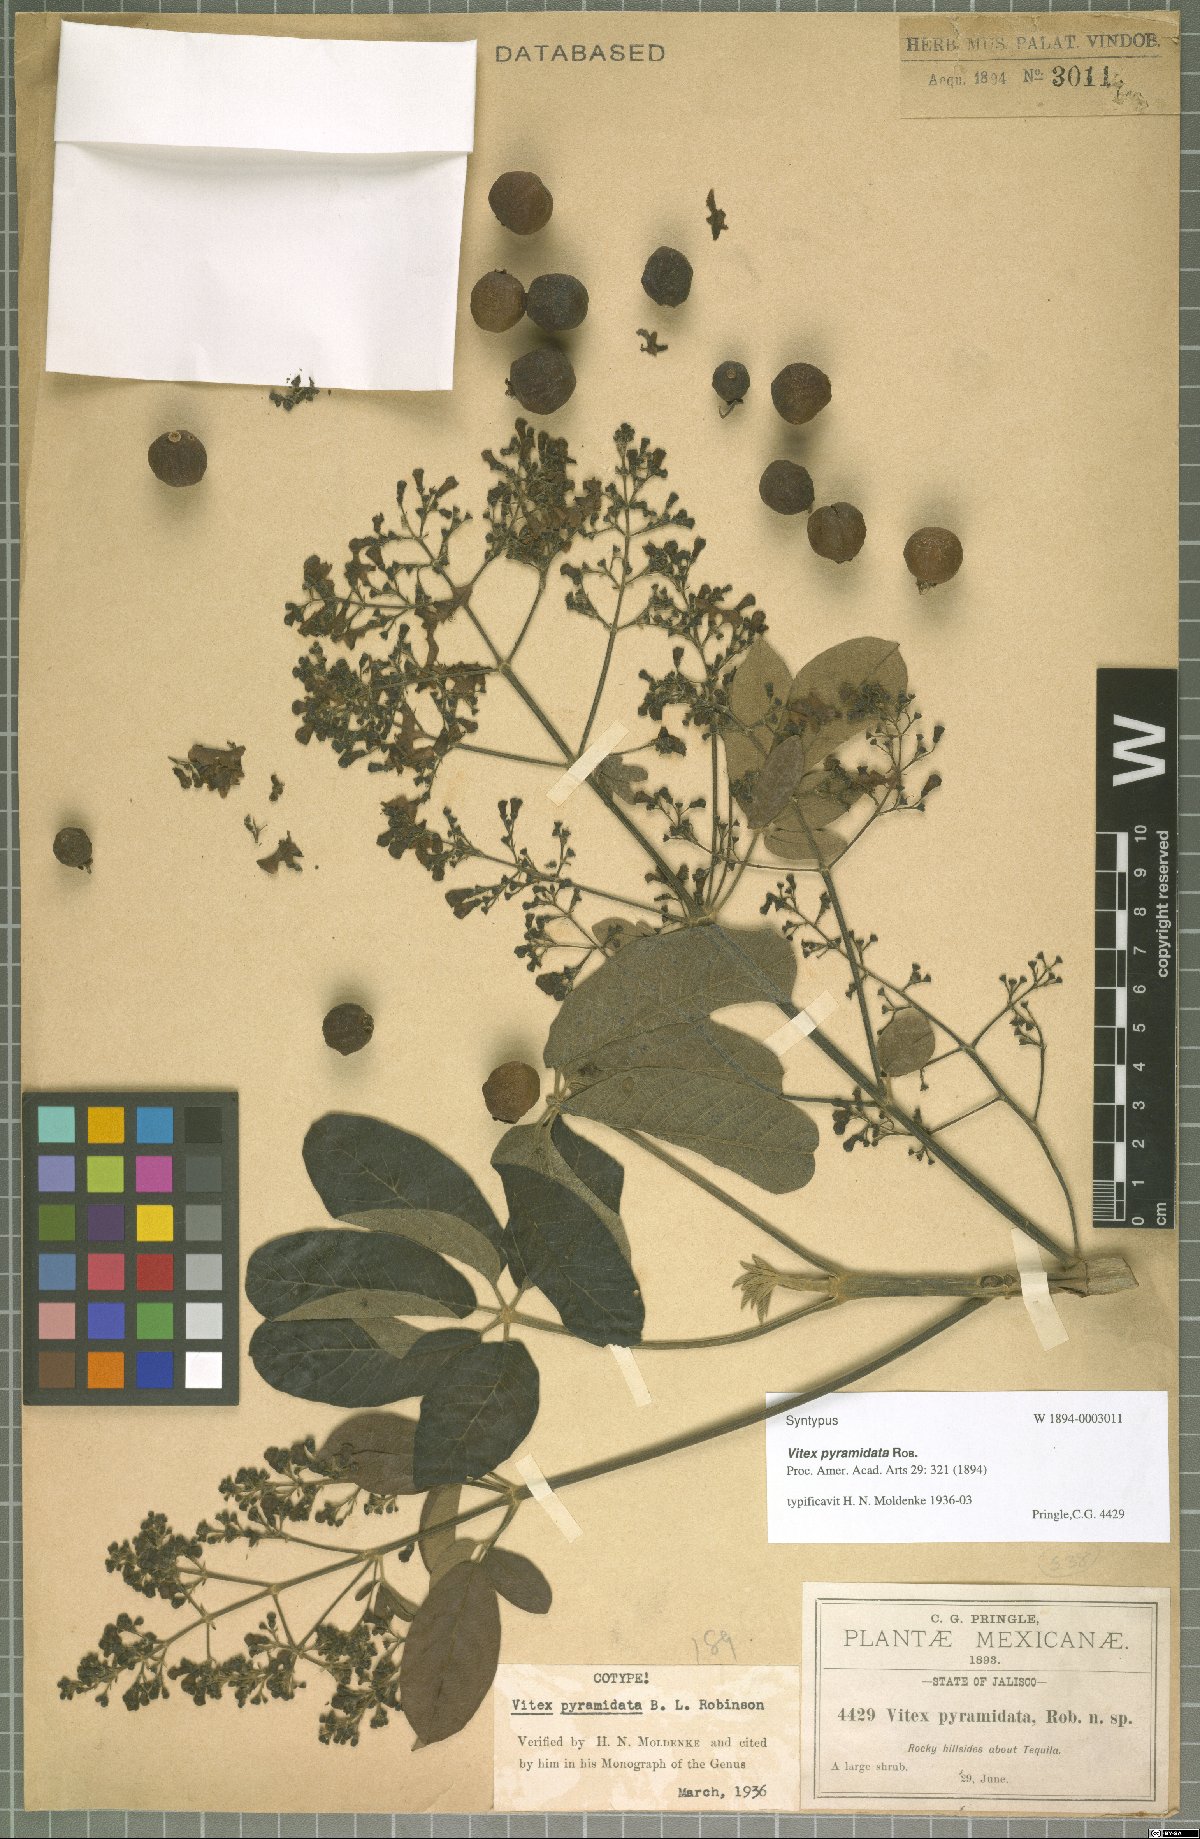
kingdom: Plantae
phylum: Tracheophyta
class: Magnoliopsida
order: Lamiales
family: Verbenaceae
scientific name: Verbenaceae
